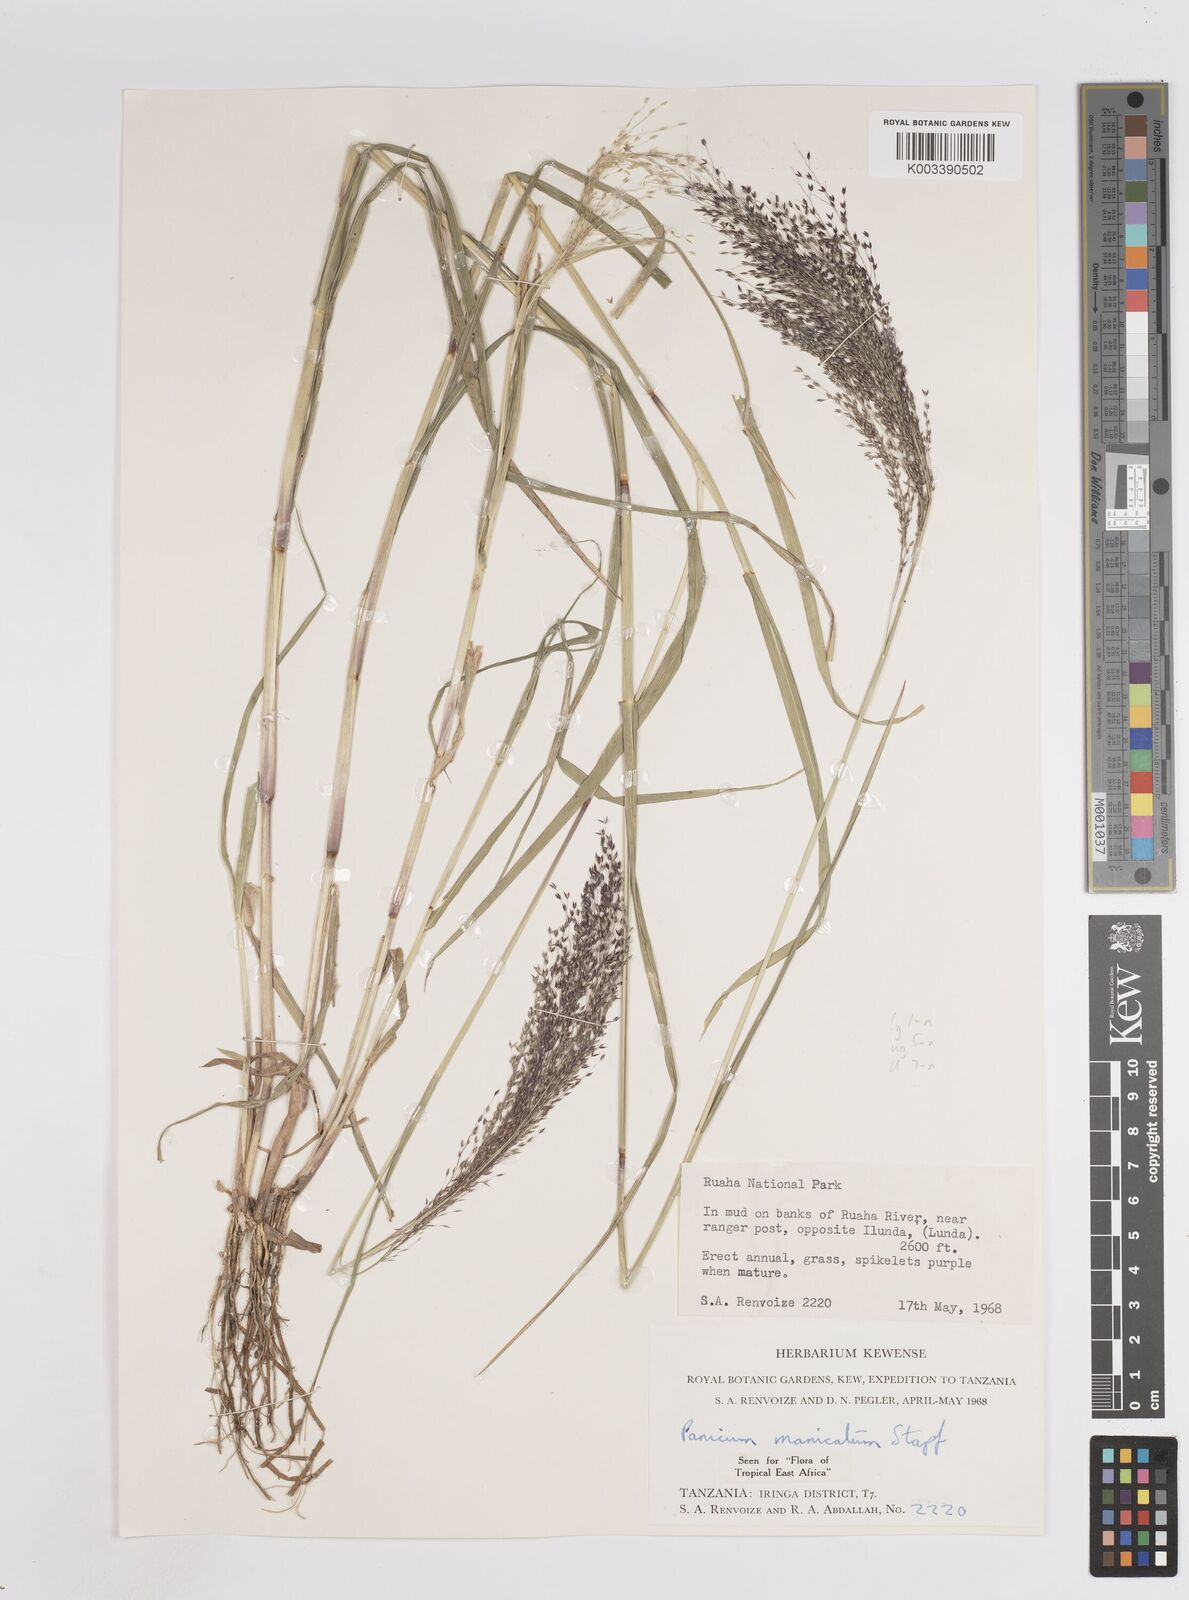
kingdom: Plantae
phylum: Tracheophyta
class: Liliopsida
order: Poales
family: Poaceae
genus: Panicum
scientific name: Panicum massaiense
